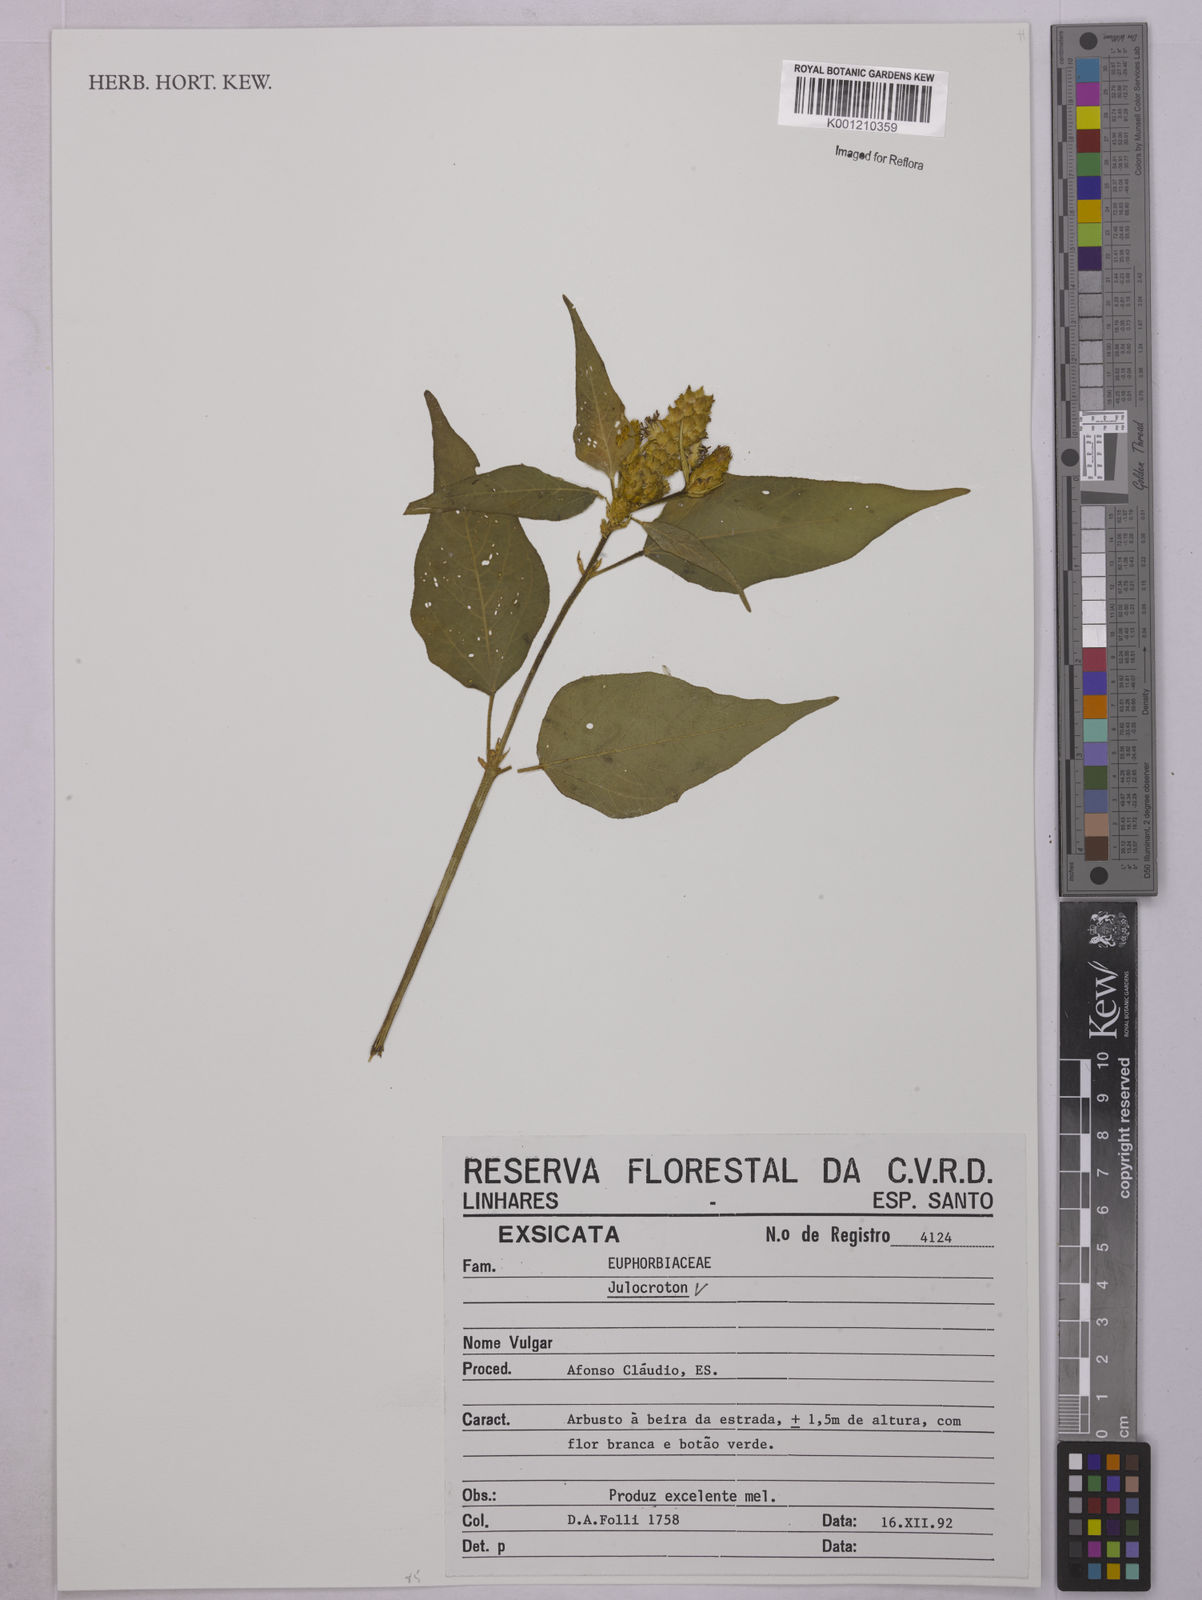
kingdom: Plantae
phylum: Tracheophyta
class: Magnoliopsida
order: Malpighiales
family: Euphorbiaceae
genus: Croton
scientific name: Croton
